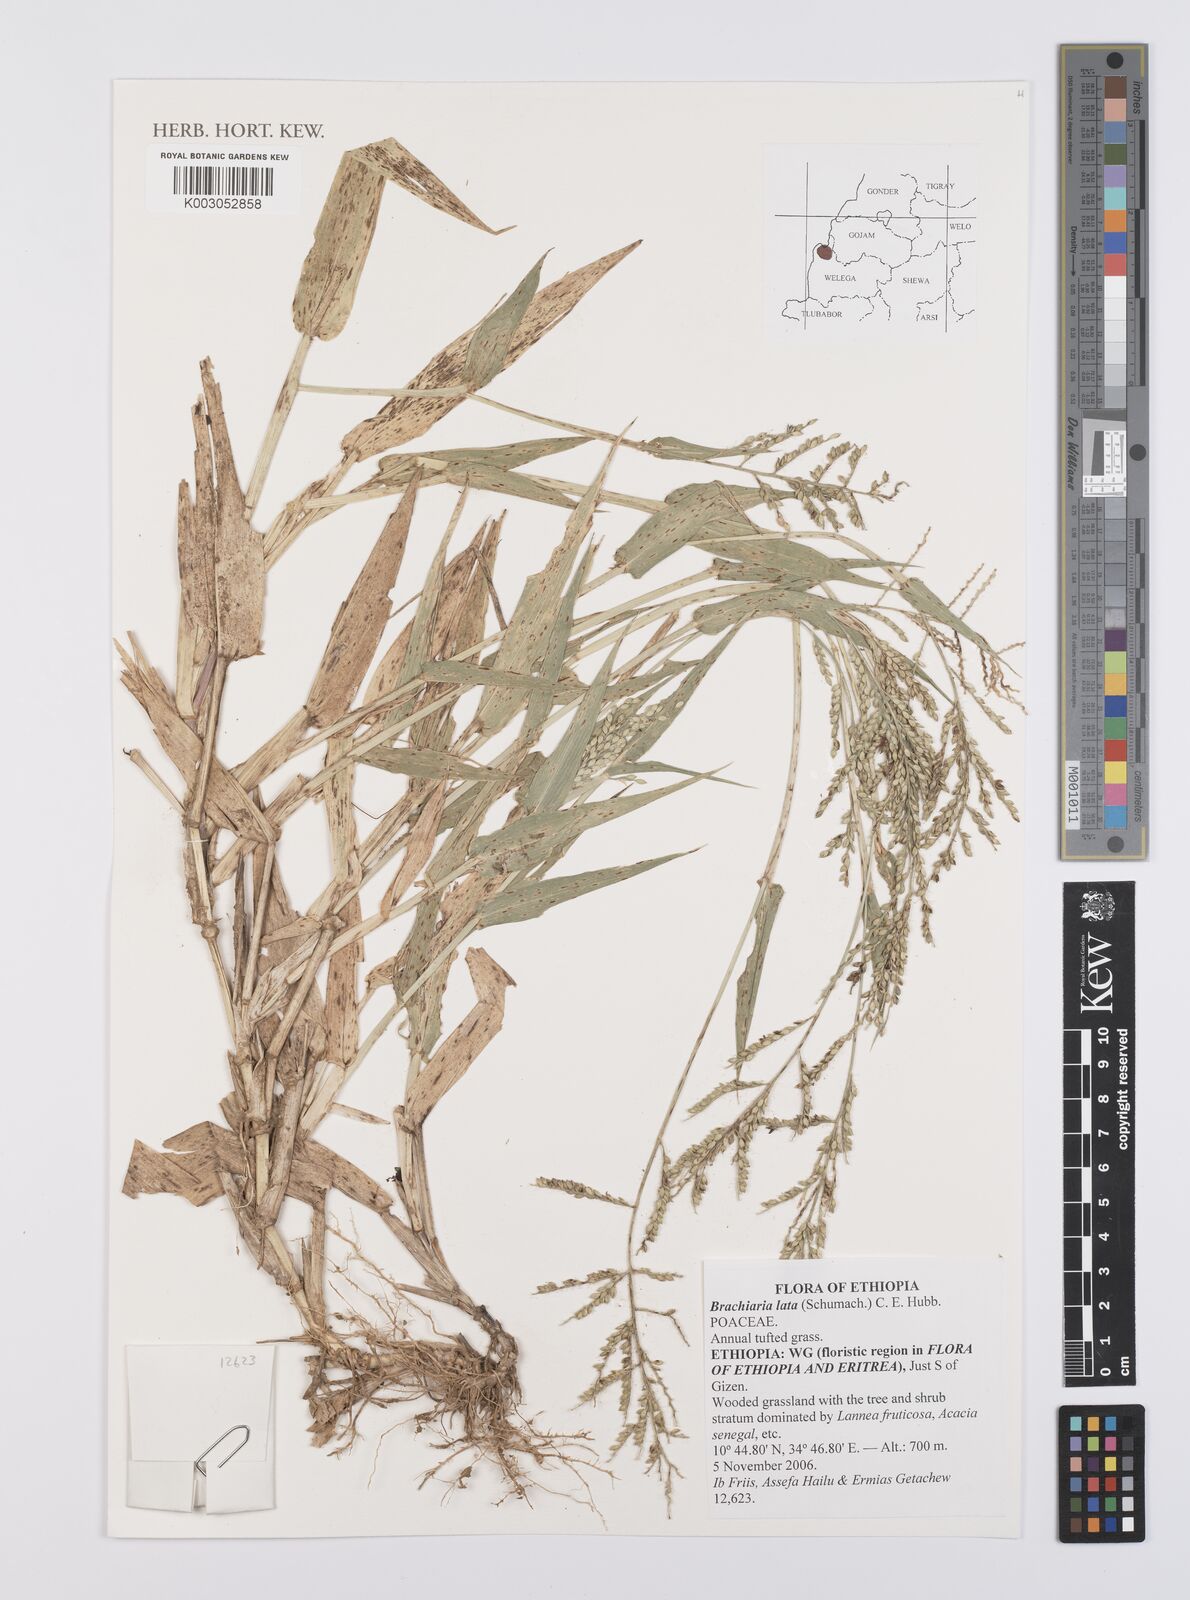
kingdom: Plantae
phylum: Tracheophyta
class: Liliopsida
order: Poales
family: Poaceae
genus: Urochloa
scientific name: Urochloa lata
